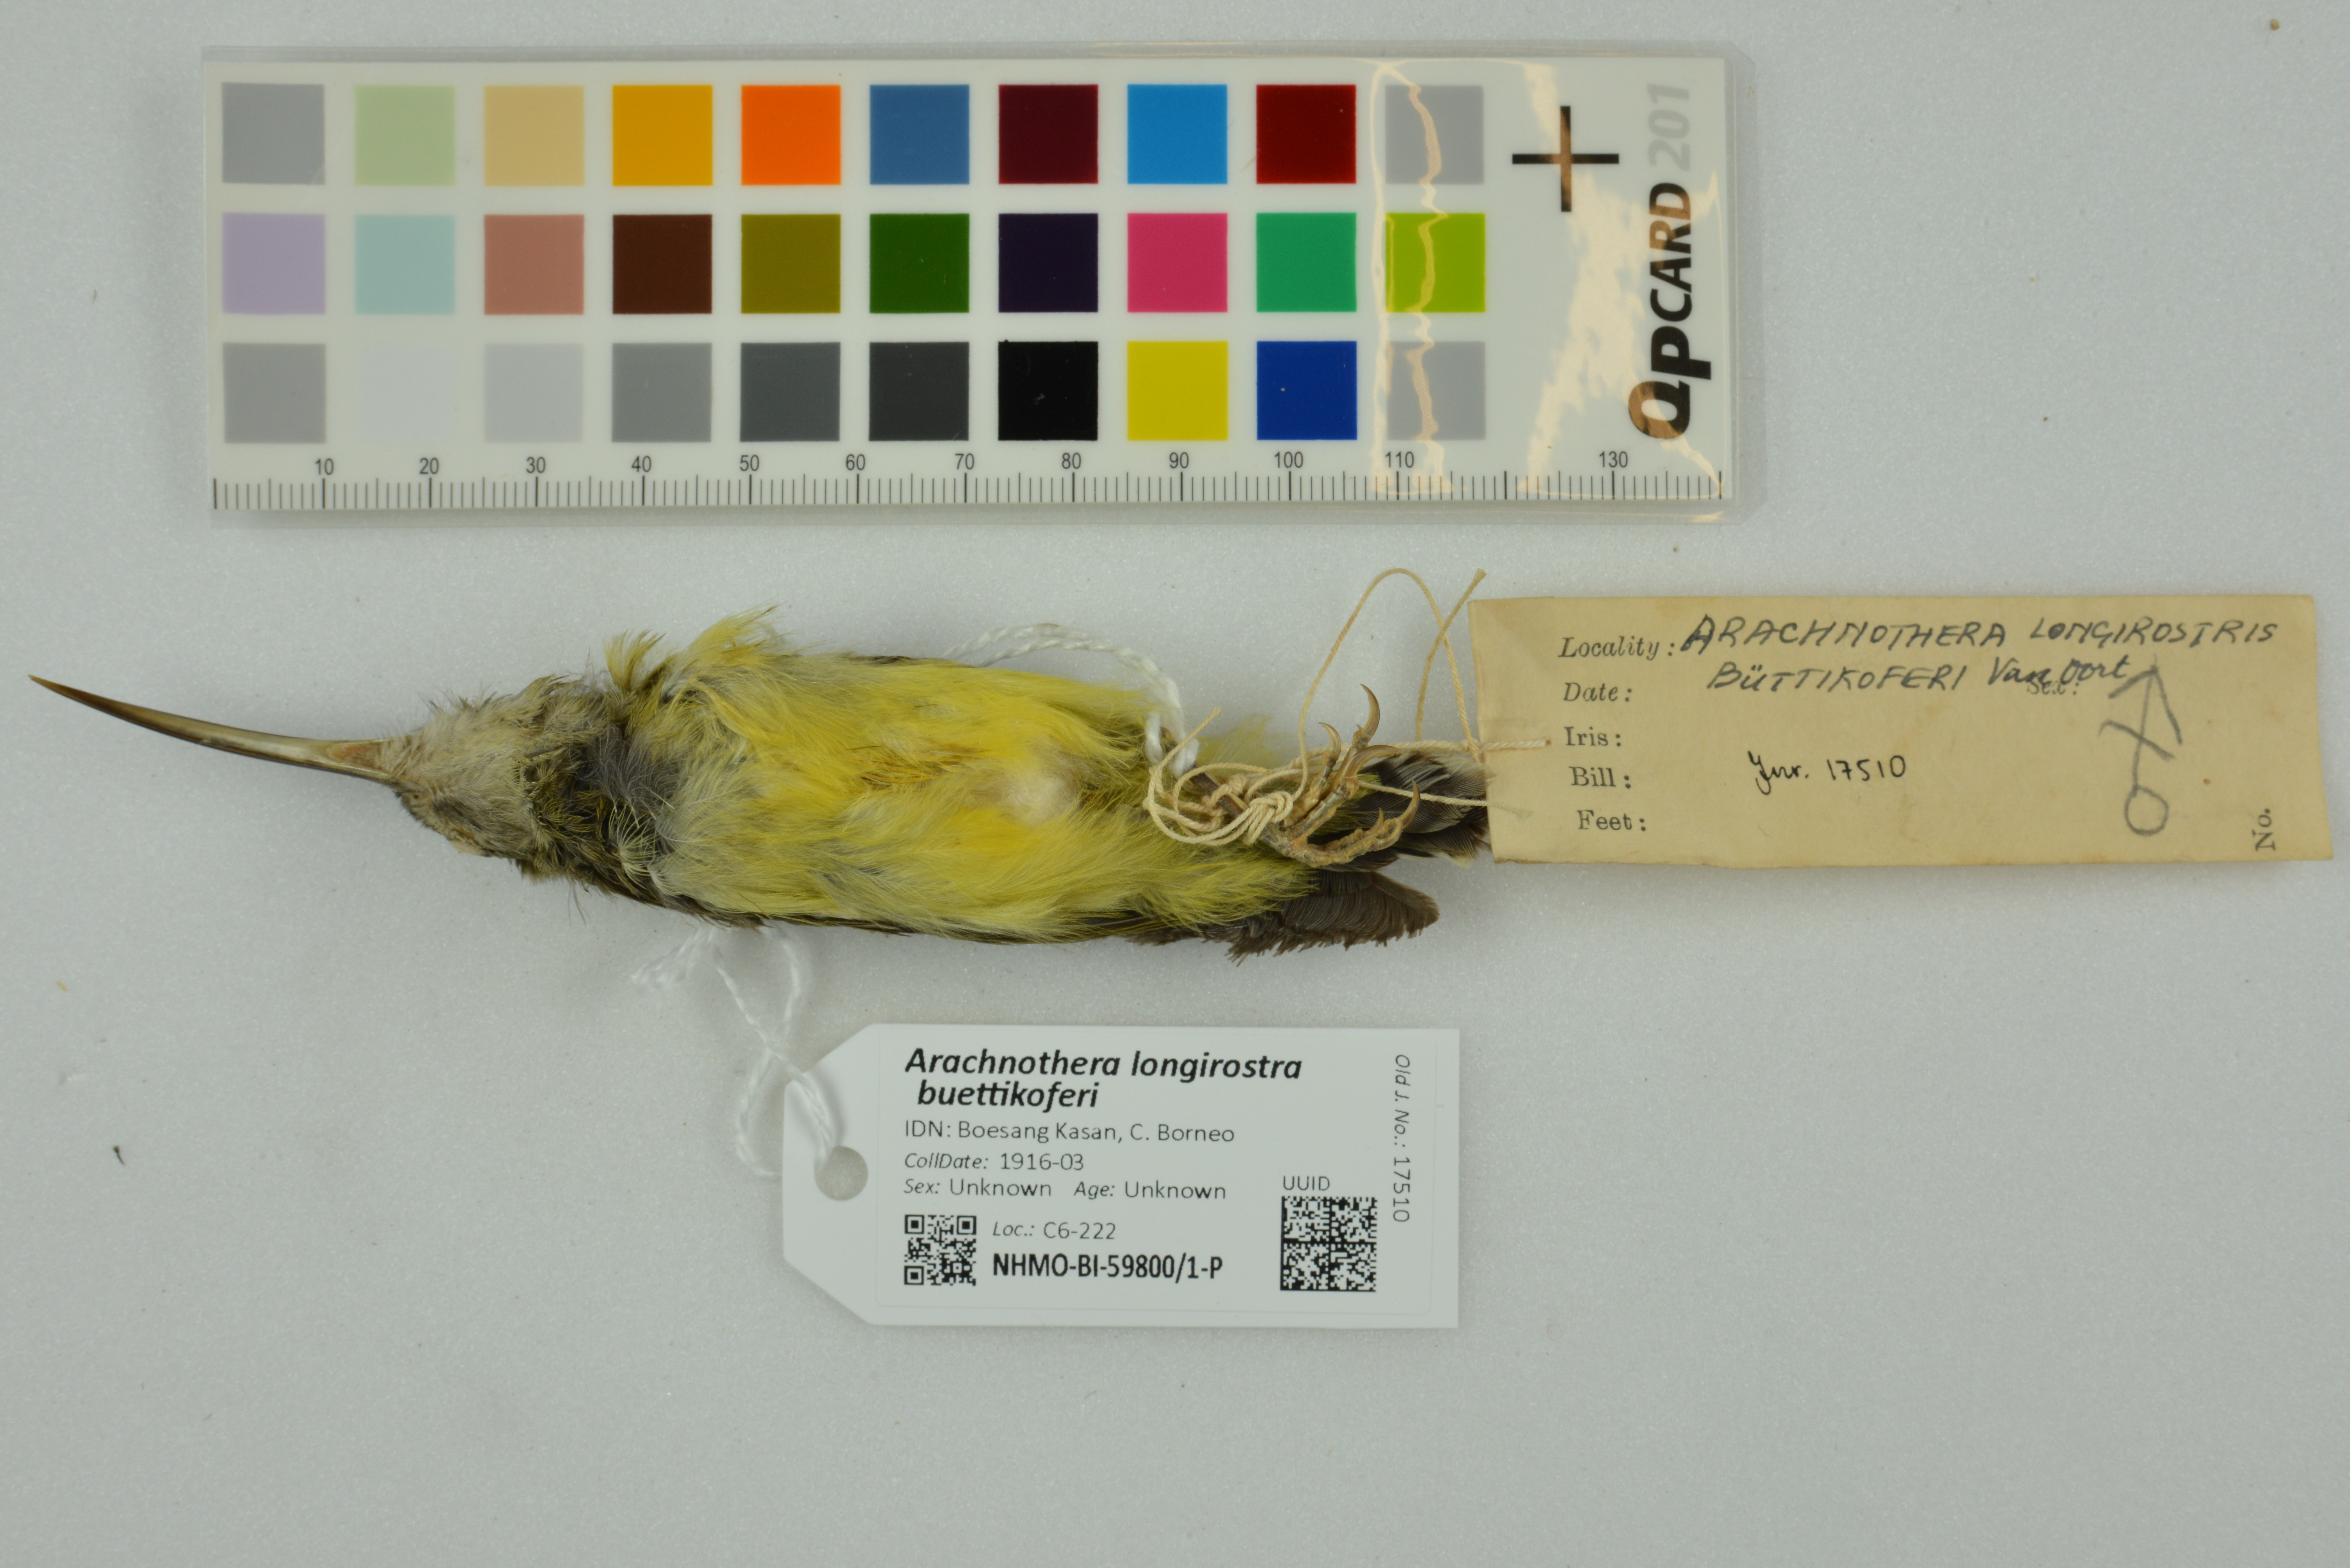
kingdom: Animalia
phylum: Chordata
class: Aves
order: Passeriformes
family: Nectariniidae
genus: Arachnothera
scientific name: Arachnothera longirostra
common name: Little spiderhunter
